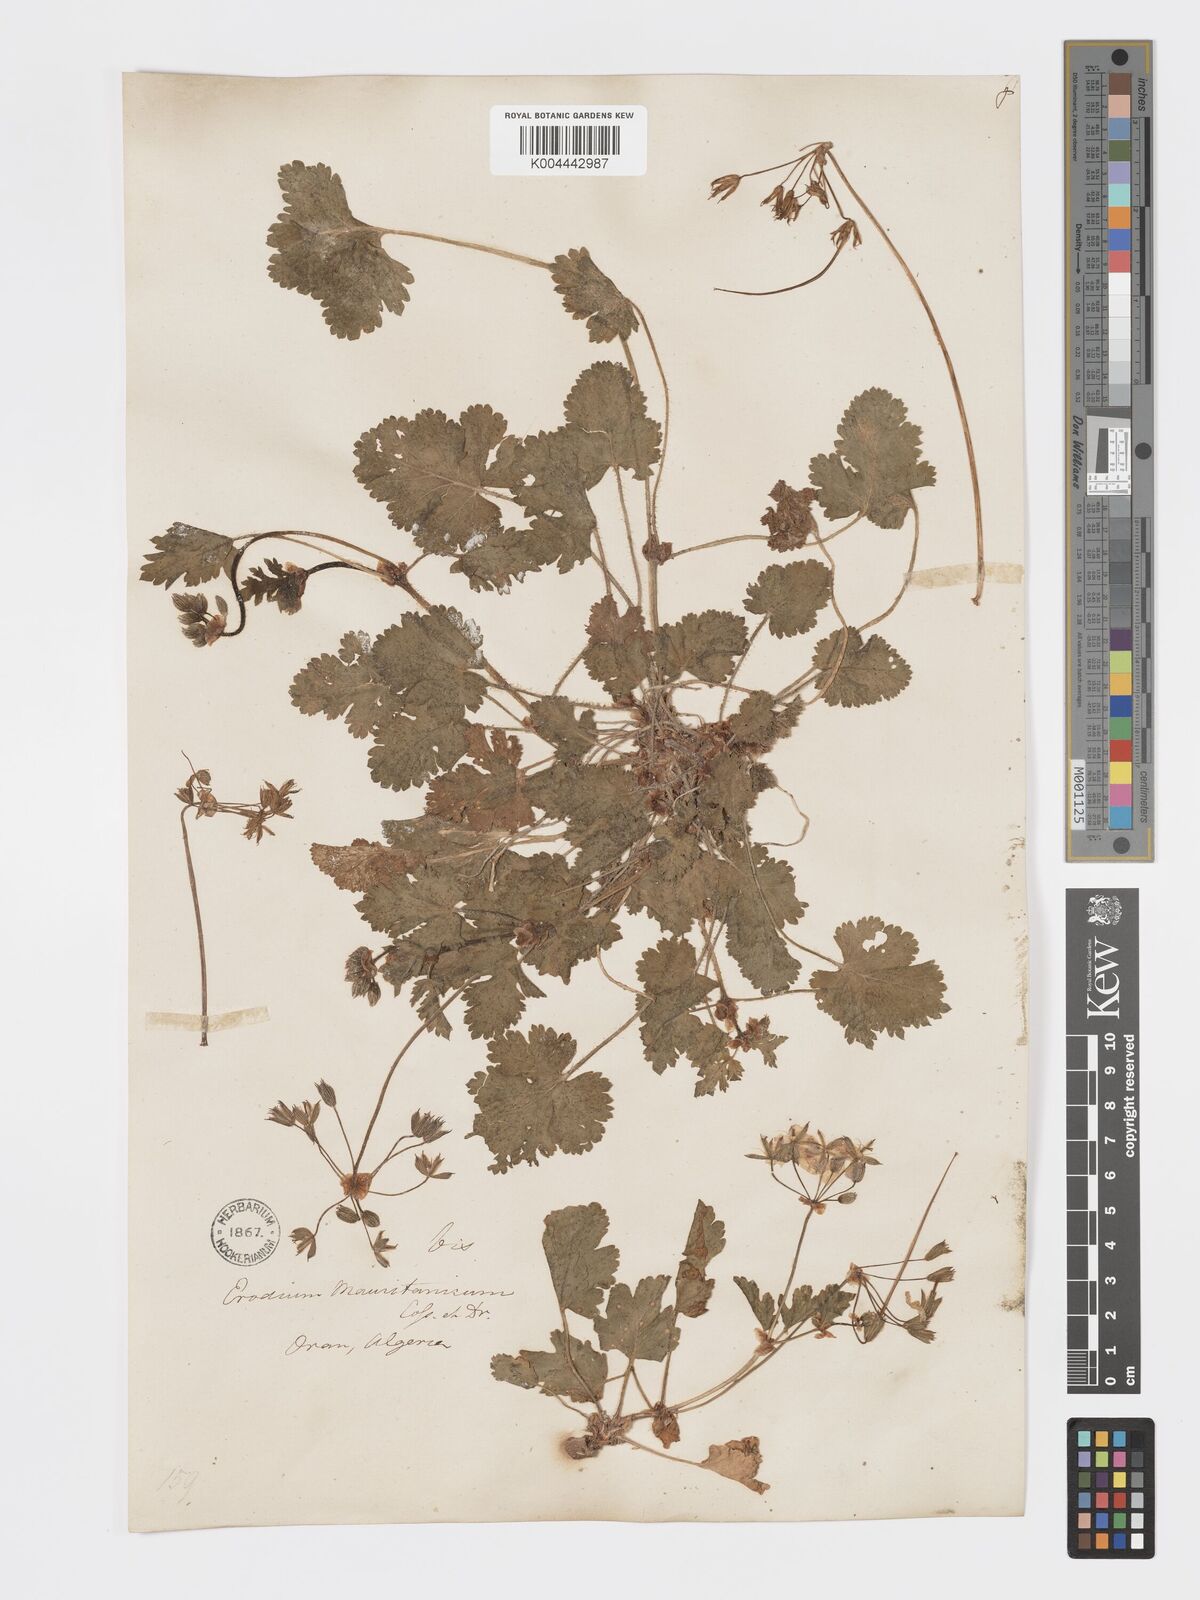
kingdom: Plantae
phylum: Tracheophyta
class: Magnoliopsida
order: Geraniales
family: Geraniaceae
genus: Erodium
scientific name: Erodium munbyanum
